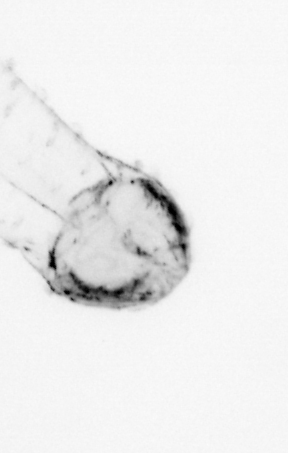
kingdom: Animalia
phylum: Chaetognatha
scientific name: Chaetognatha
